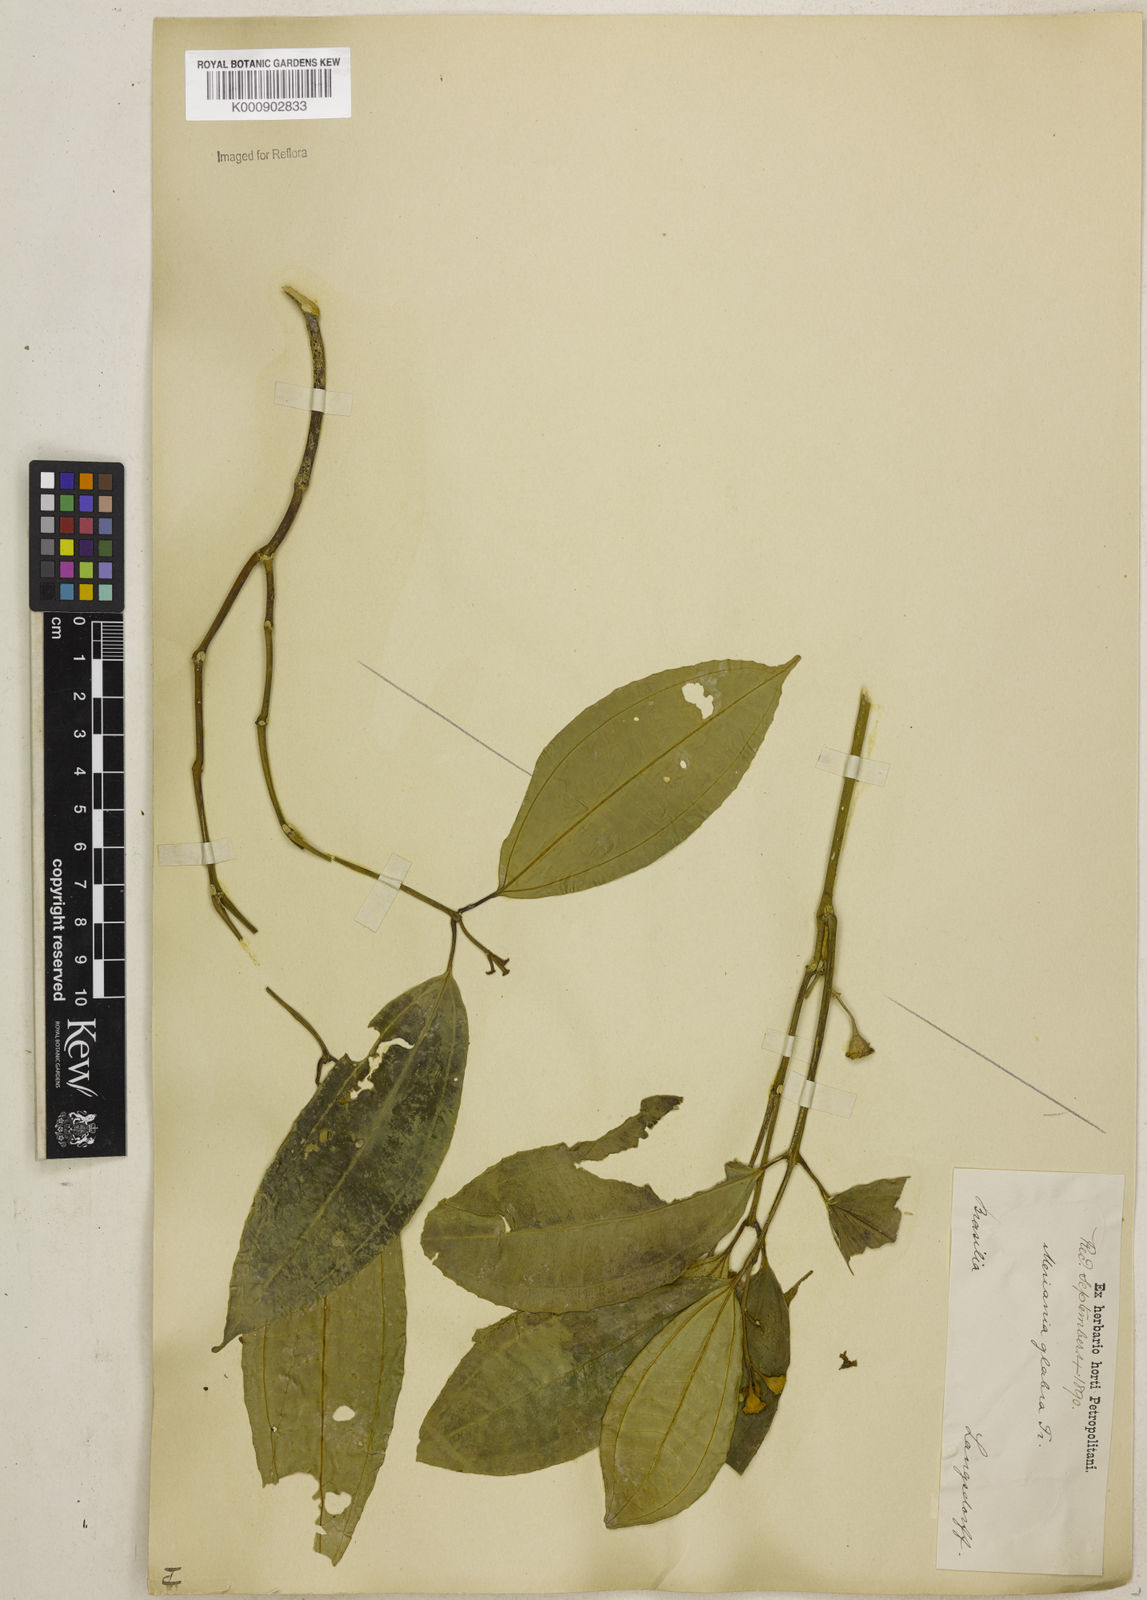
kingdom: Plantae
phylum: Tracheophyta
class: Magnoliopsida
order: Myrtales
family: Melastomataceae
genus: Meriania
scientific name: Meriania glabra
